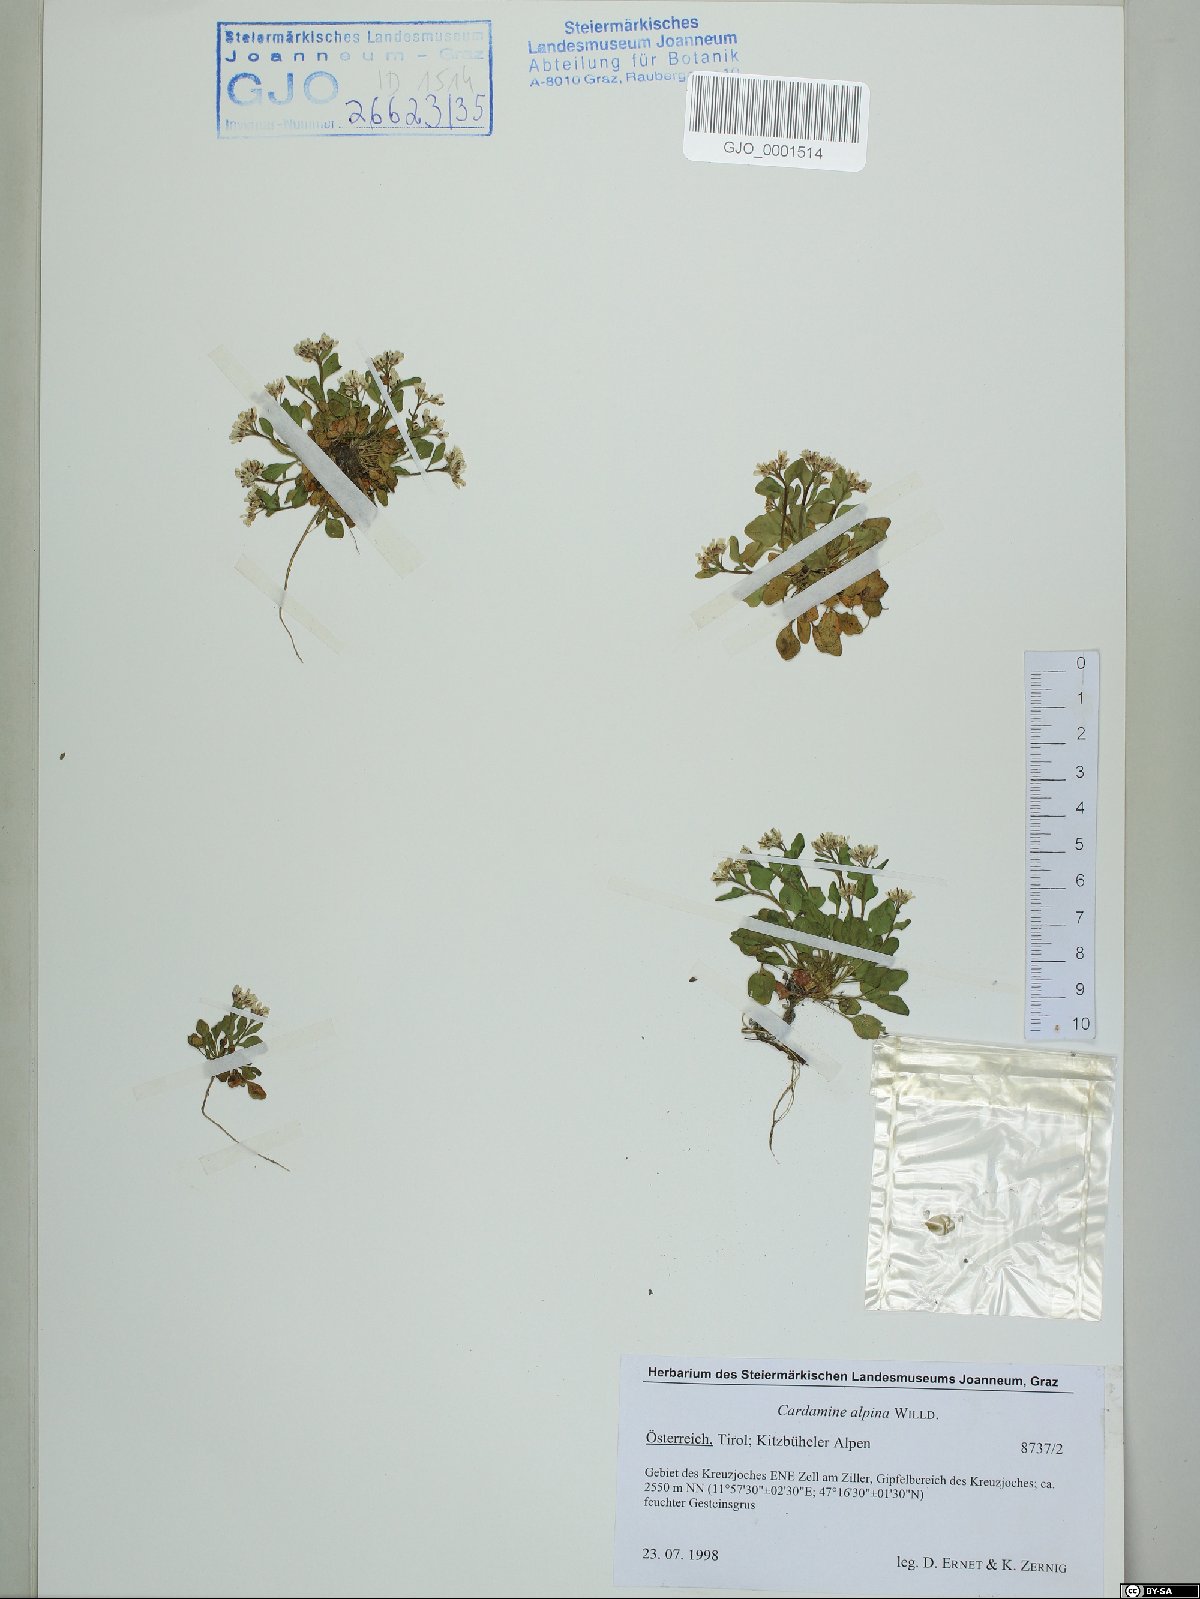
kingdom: Plantae
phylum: Tracheophyta
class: Magnoliopsida
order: Brassicales
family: Brassicaceae
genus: Cardamine
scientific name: Cardamine bellidifolia
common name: Alpine bittercress
